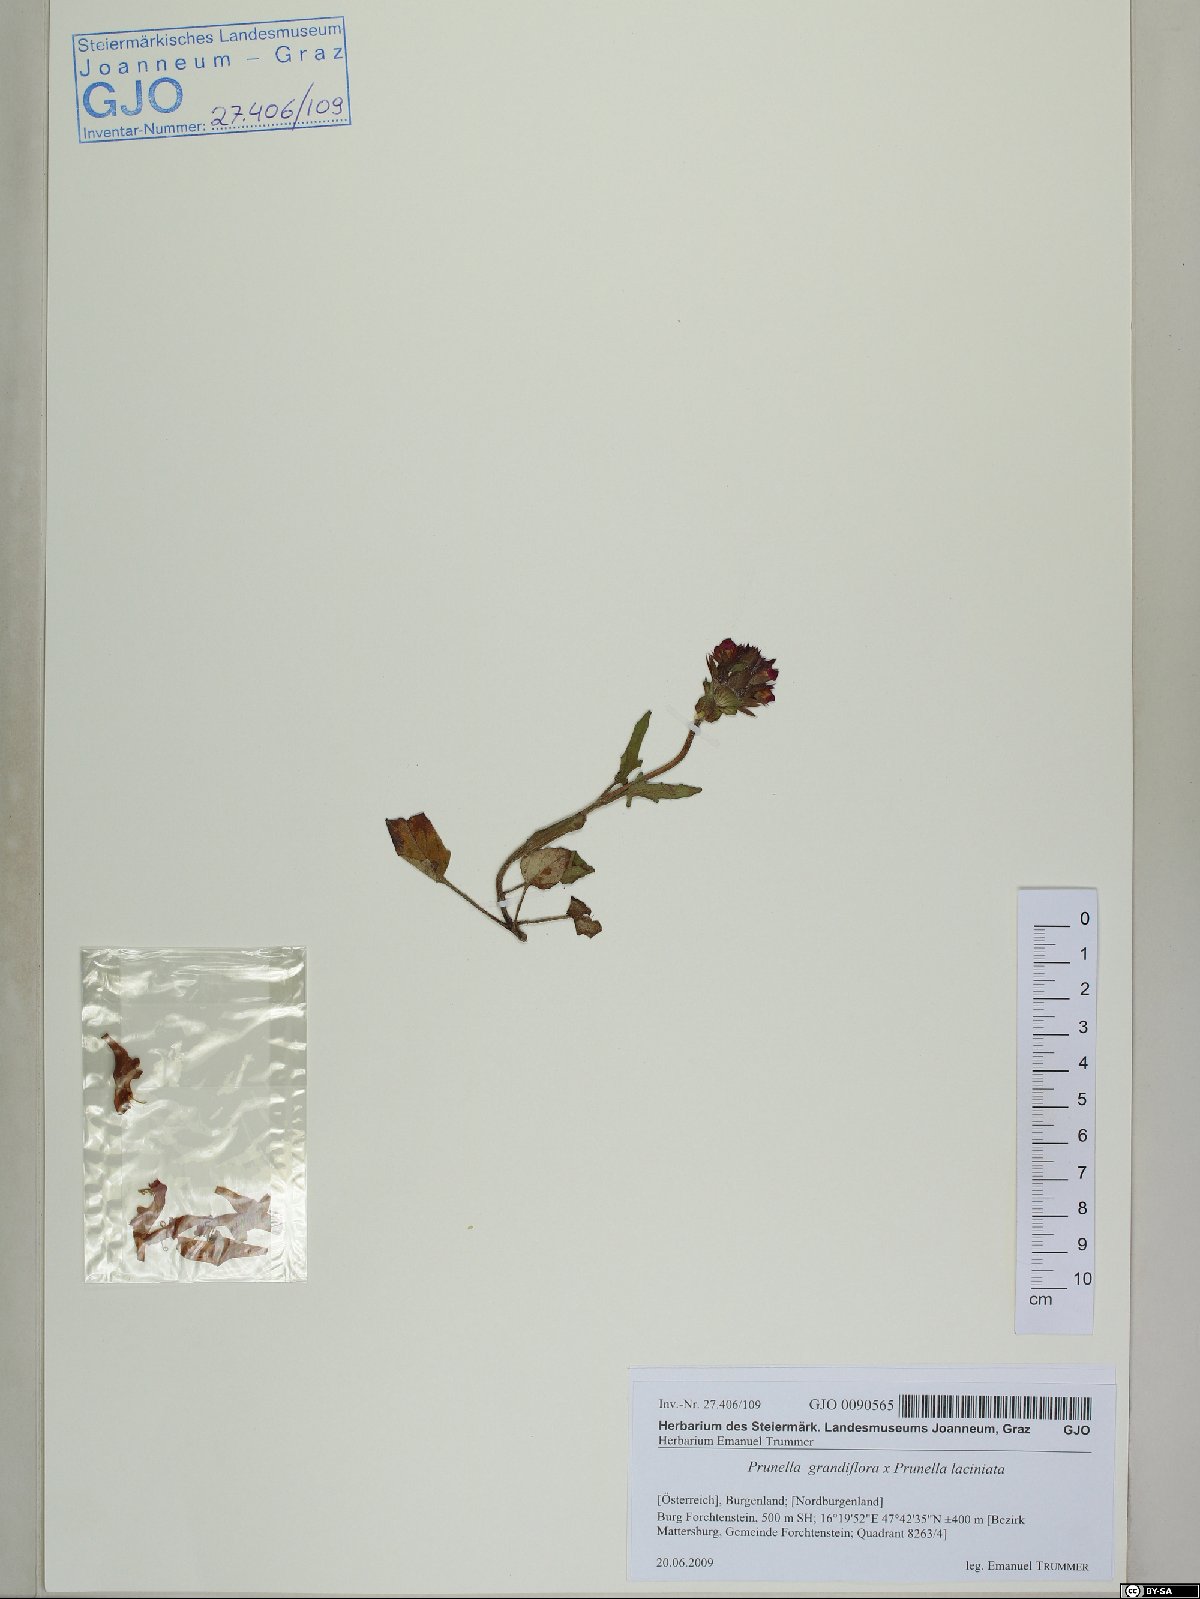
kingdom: Plantae
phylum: Tracheophyta
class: Magnoliopsida
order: Lamiales
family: Lamiaceae
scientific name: Lamiaceae
